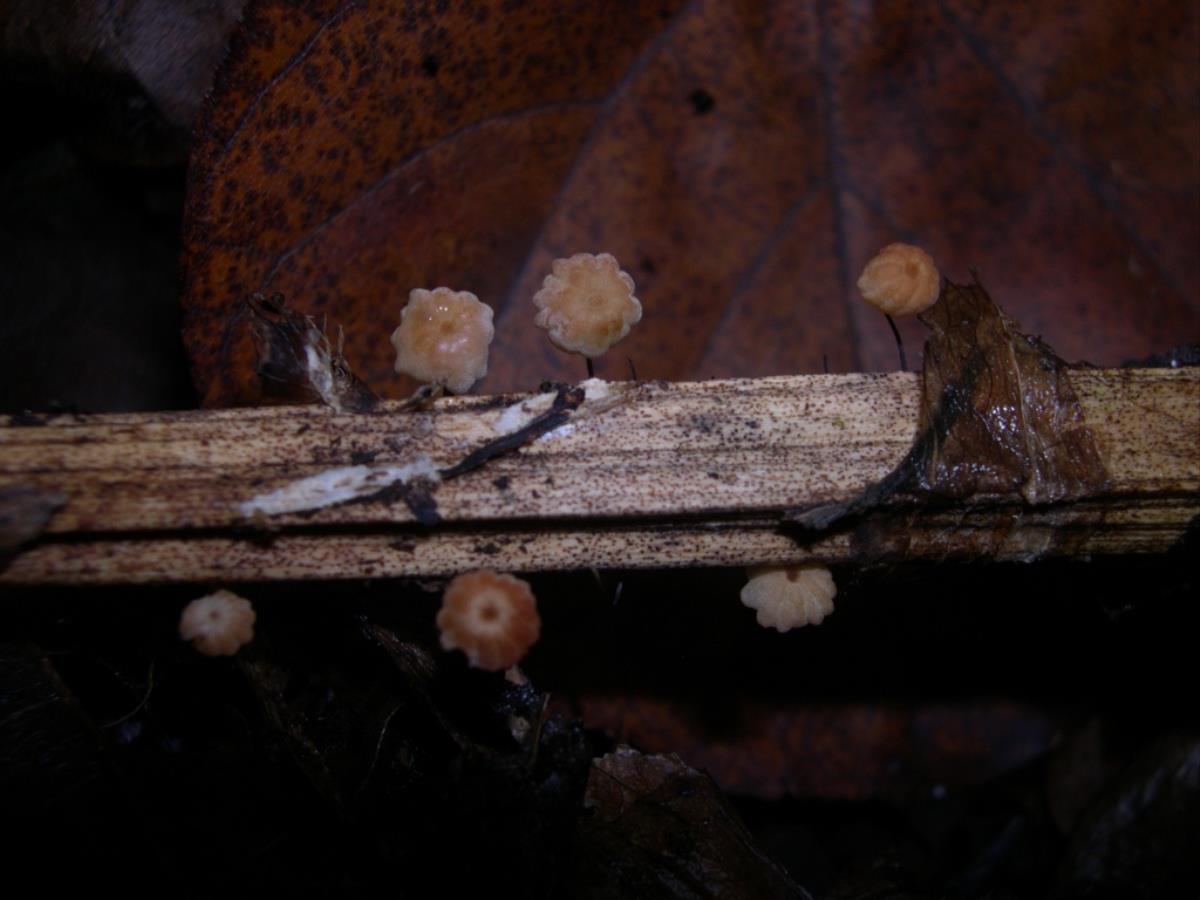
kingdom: Fungi
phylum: Basidiomycota
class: Agaricomycetes
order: Agaricales
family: Marasmiaceae
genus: Marasmius
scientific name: Marasmius rotula
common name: Collared parachute
